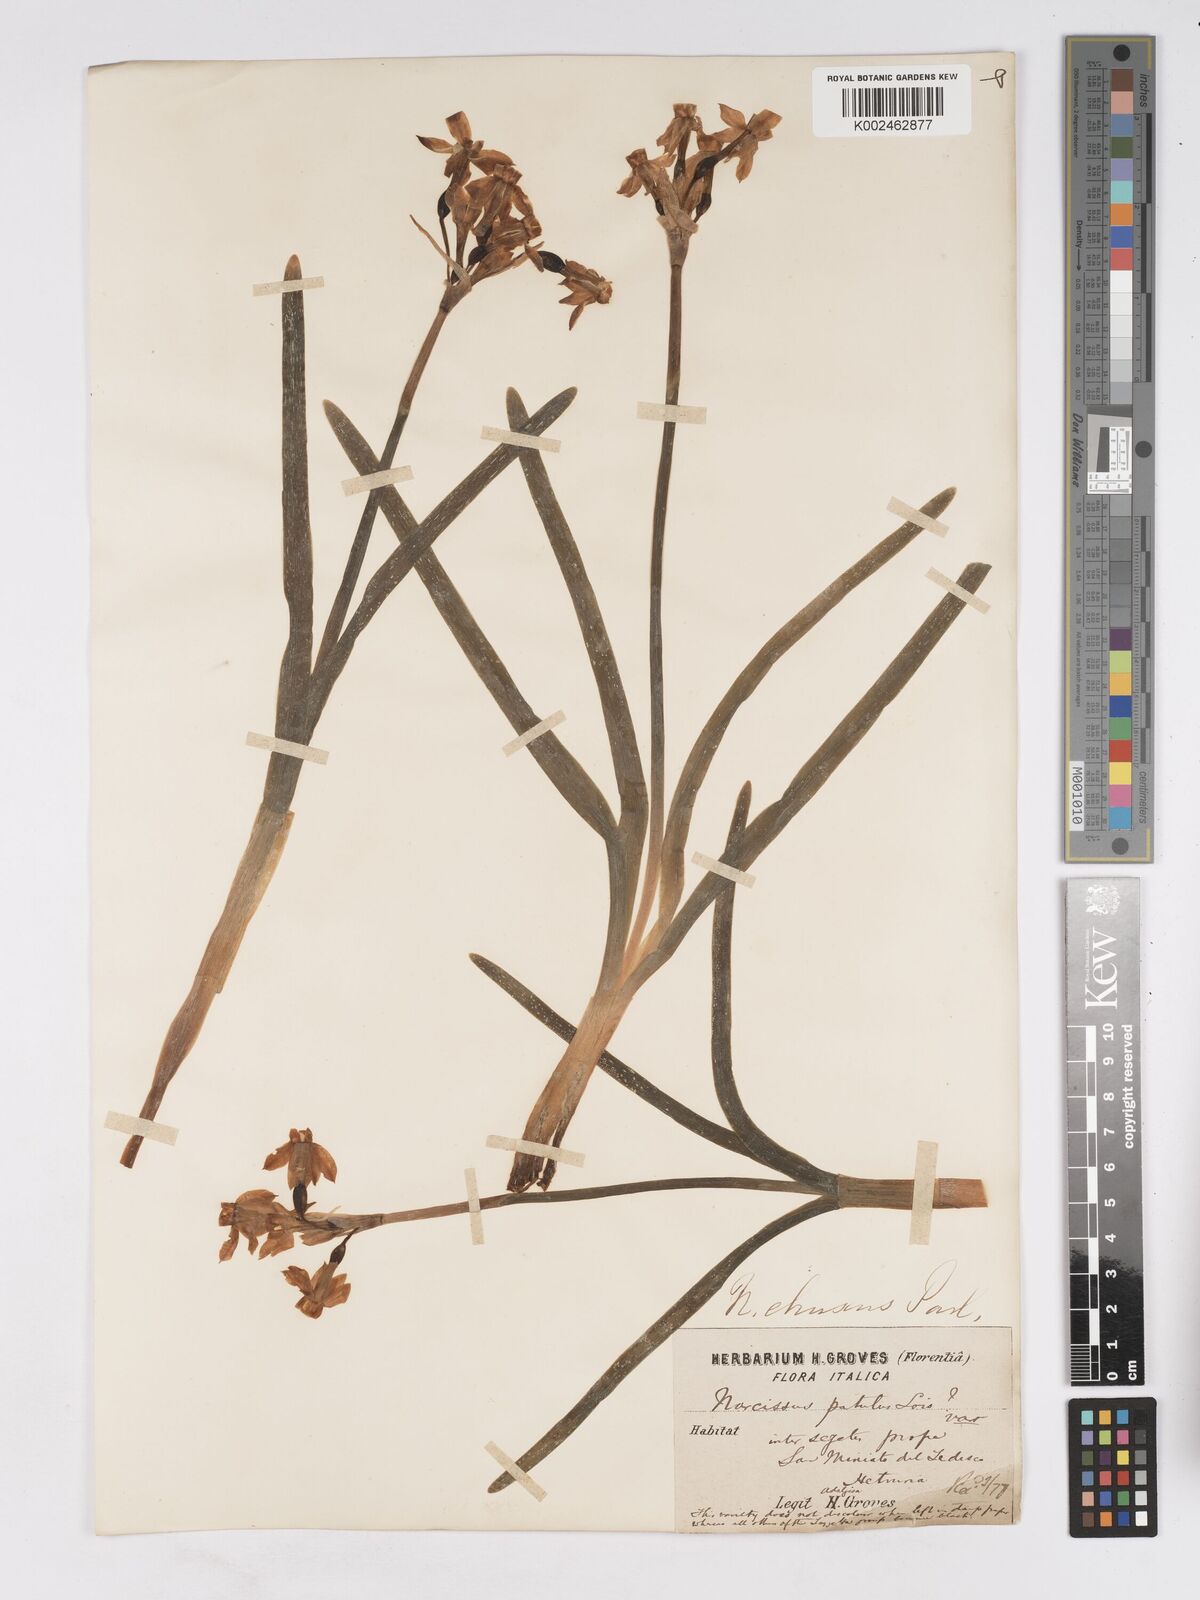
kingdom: Plantae
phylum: Tracheophyta
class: Liliopsida
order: Asparagales
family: Amaryllidaceae
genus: Narcissus
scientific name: Narcissus tazetta
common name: Bunch-flowered daffodil
